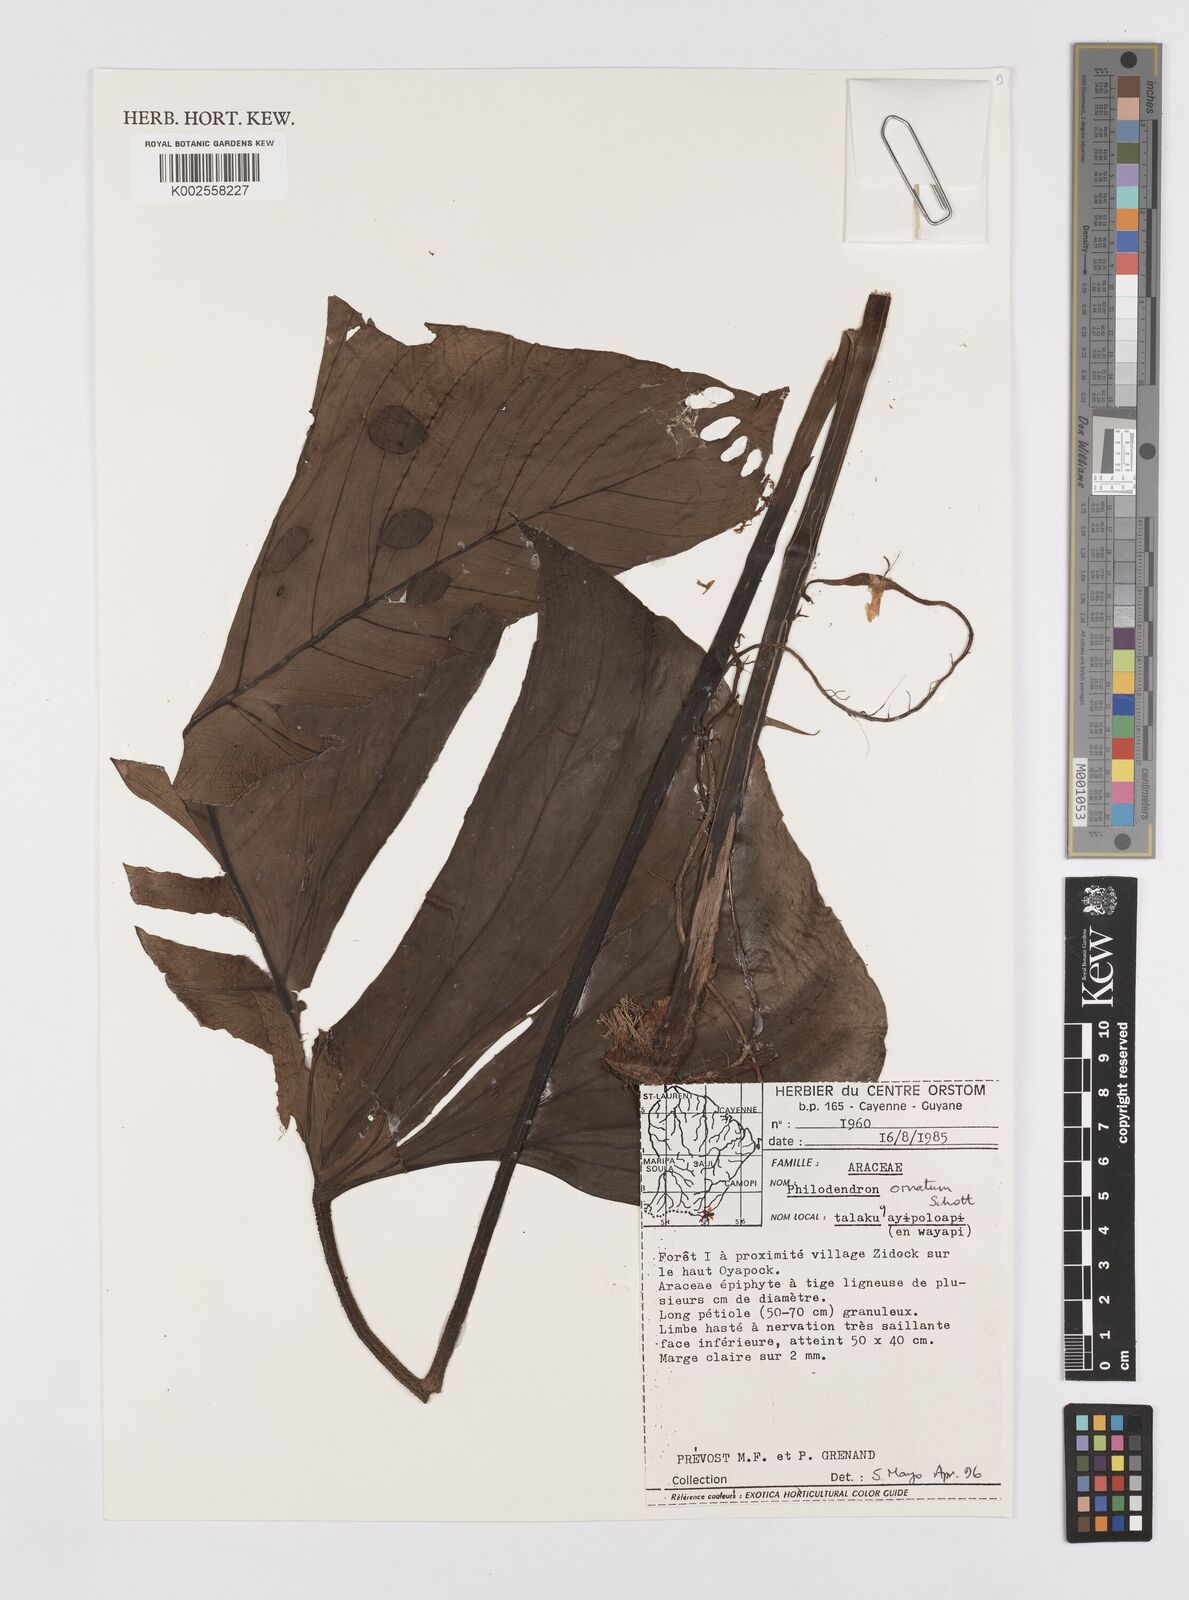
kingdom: Plantae
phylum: Tracheophyta
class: Liliopsida
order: Alismatales
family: Araceae
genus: Philodendron
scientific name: Philodendron ornatum
